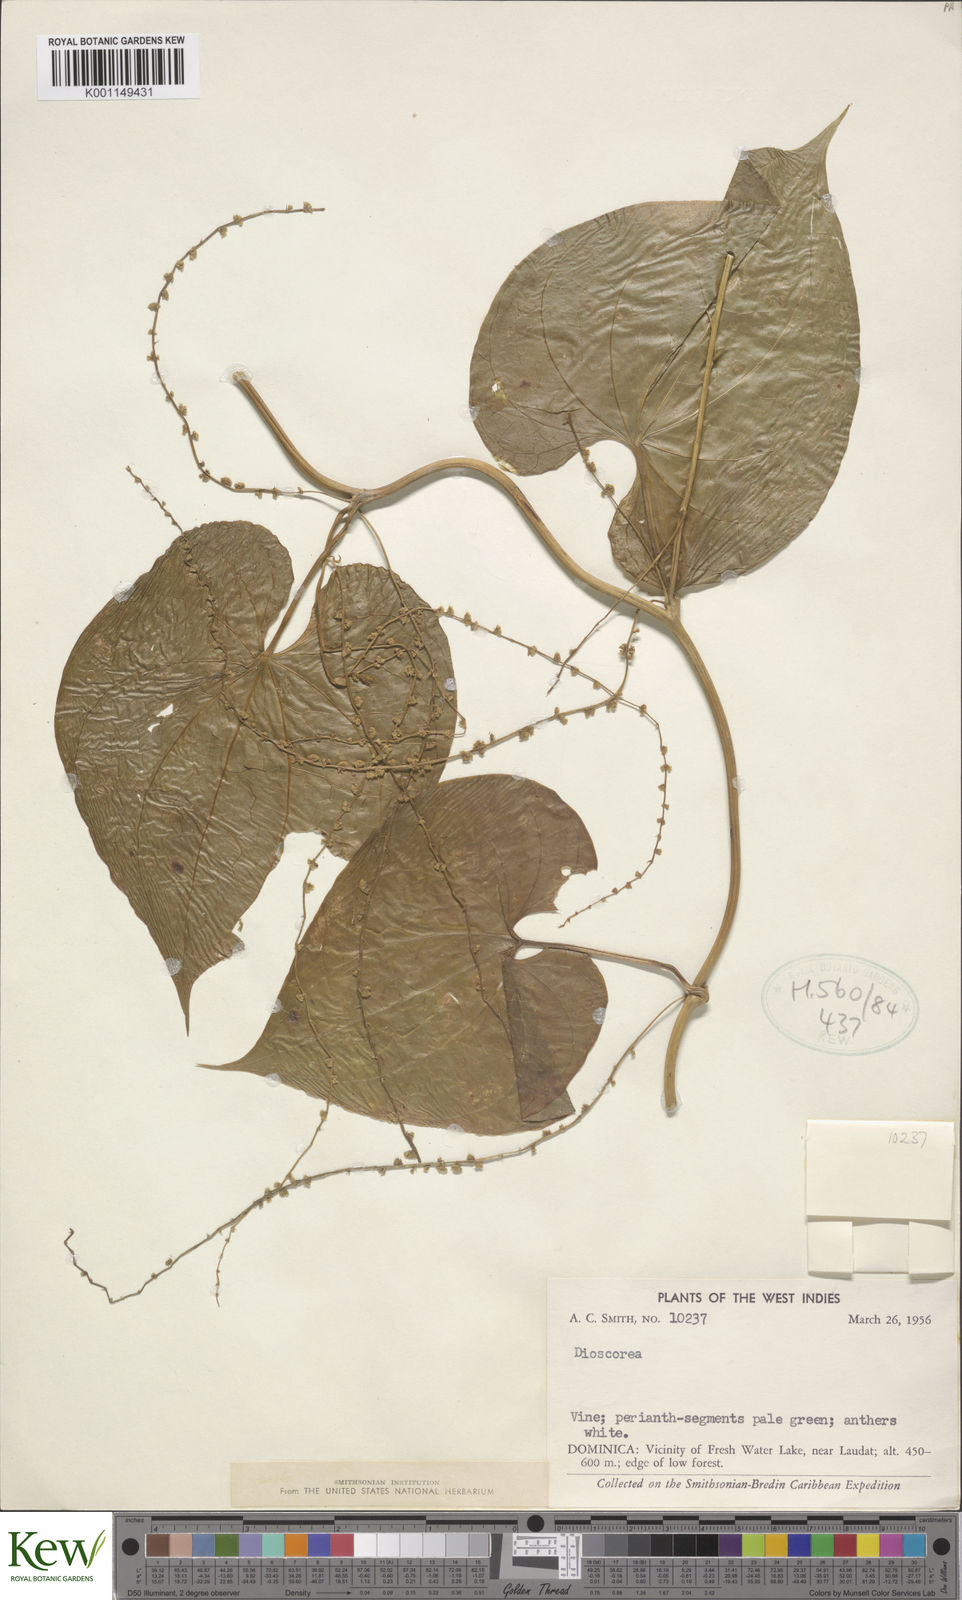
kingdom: Plantae
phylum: Tracheophyta
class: Liliopsida
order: Dioscoreales
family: Dioscoreaceae
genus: Dioscorea
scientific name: Dioscorea
